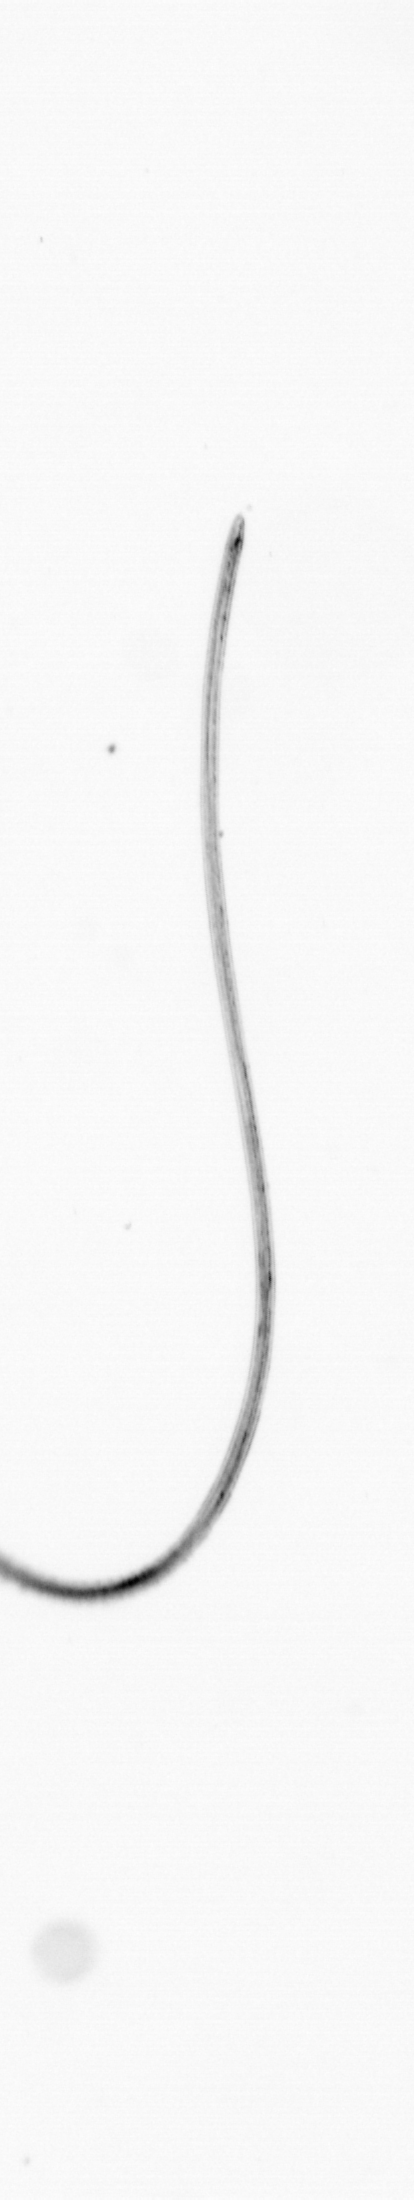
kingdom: Chromista
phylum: Ochrophyta
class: Bacillariophyceae
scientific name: Bacillariophyceae
